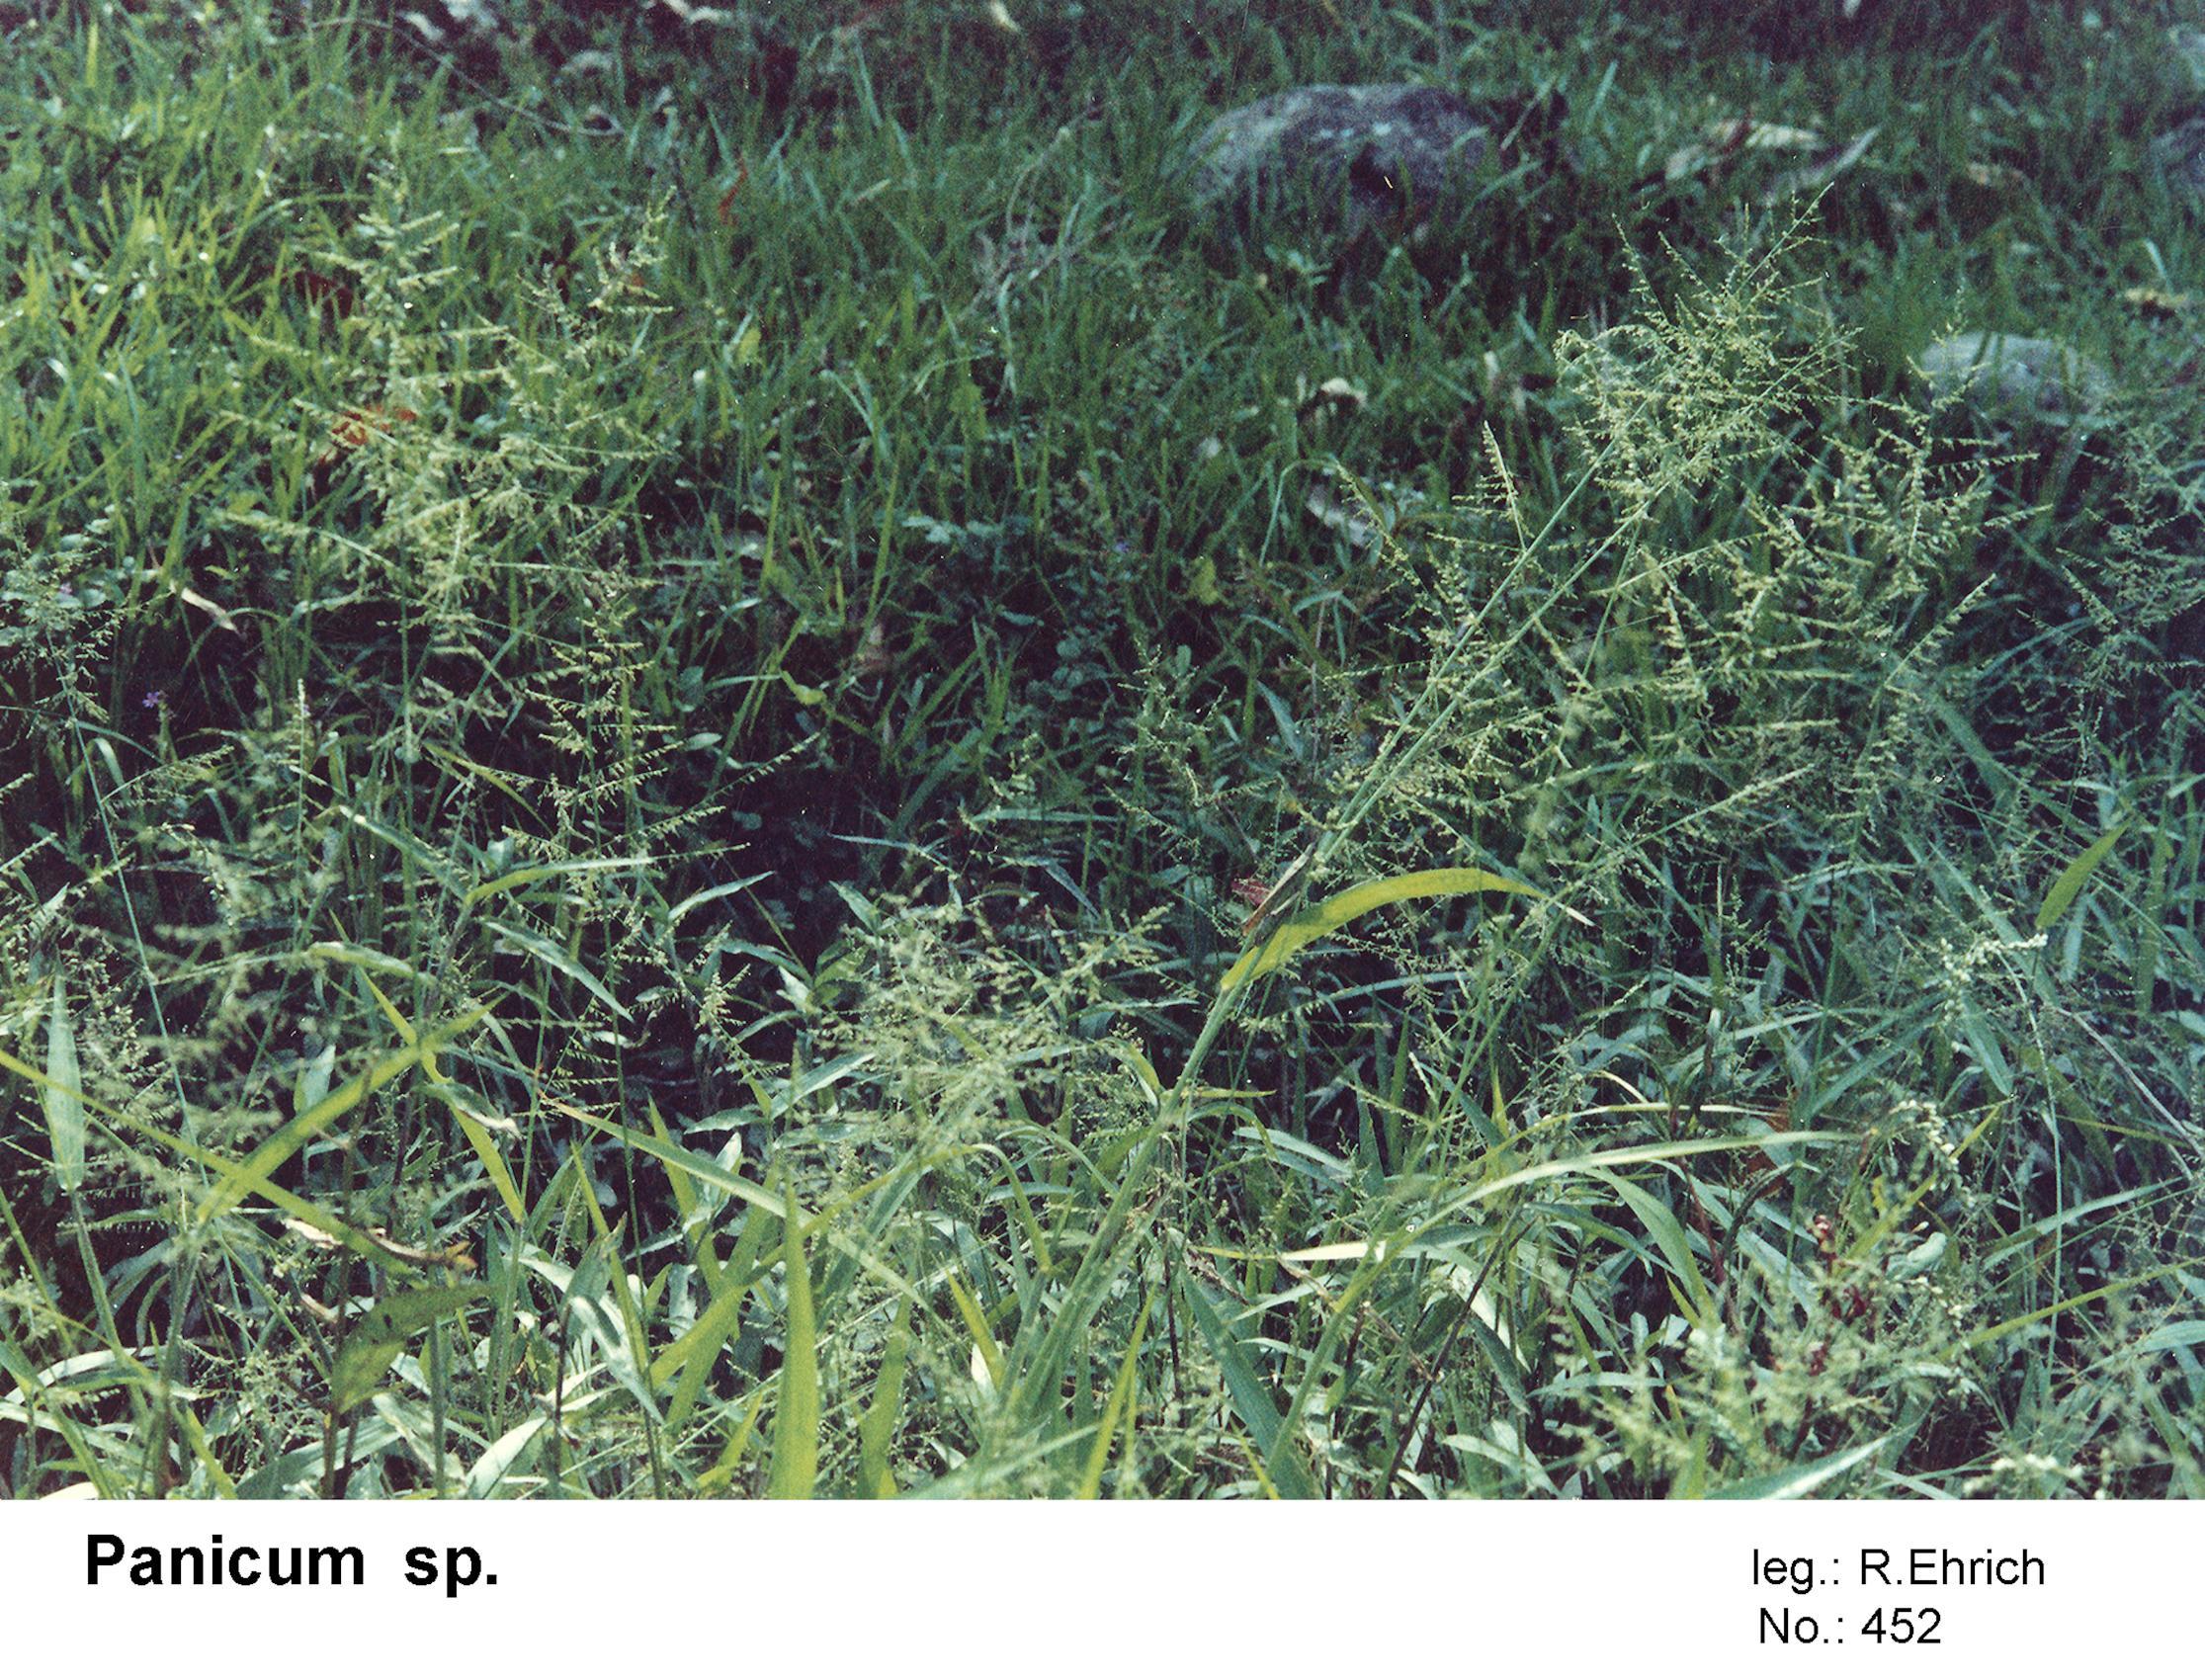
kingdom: Plantae
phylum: Tracheophyta
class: Liliopsida
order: Poales
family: Poaceae
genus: Panicum
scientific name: Panicum
